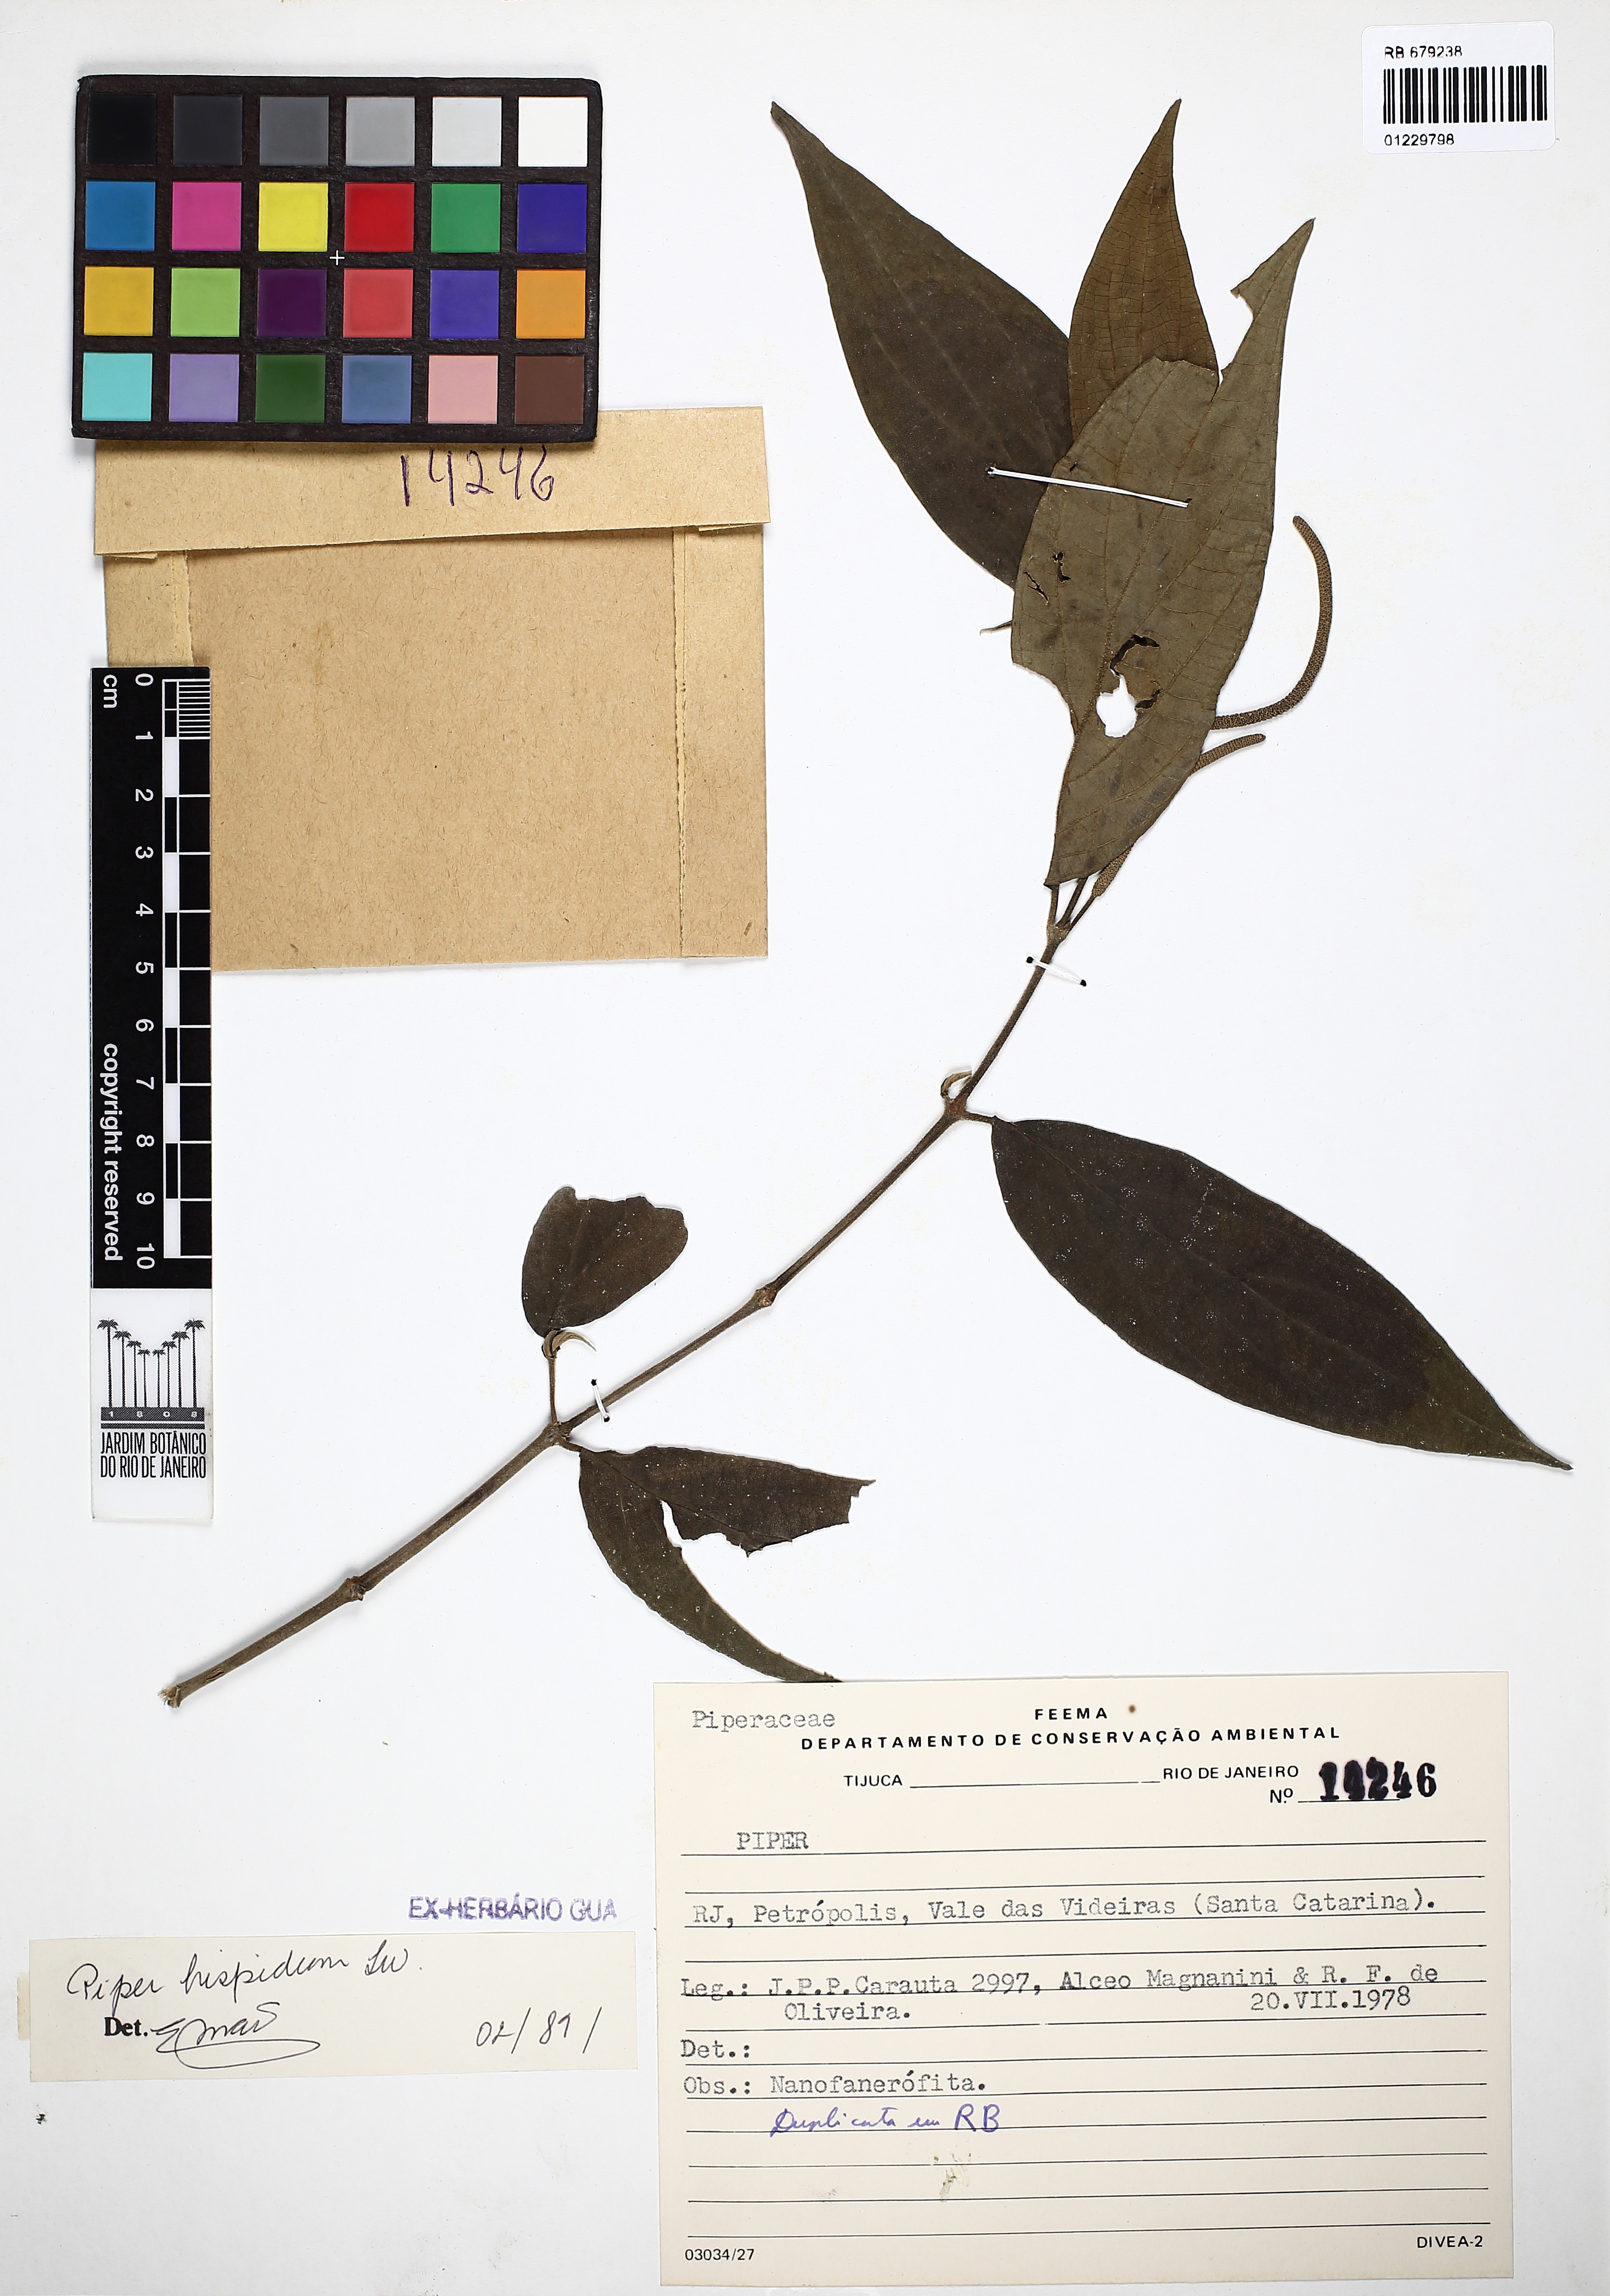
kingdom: Plantae
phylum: Tracheophyta
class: Magnoliopsida
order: Piperales
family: Piperaceae
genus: Piper
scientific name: Piper hispidum
